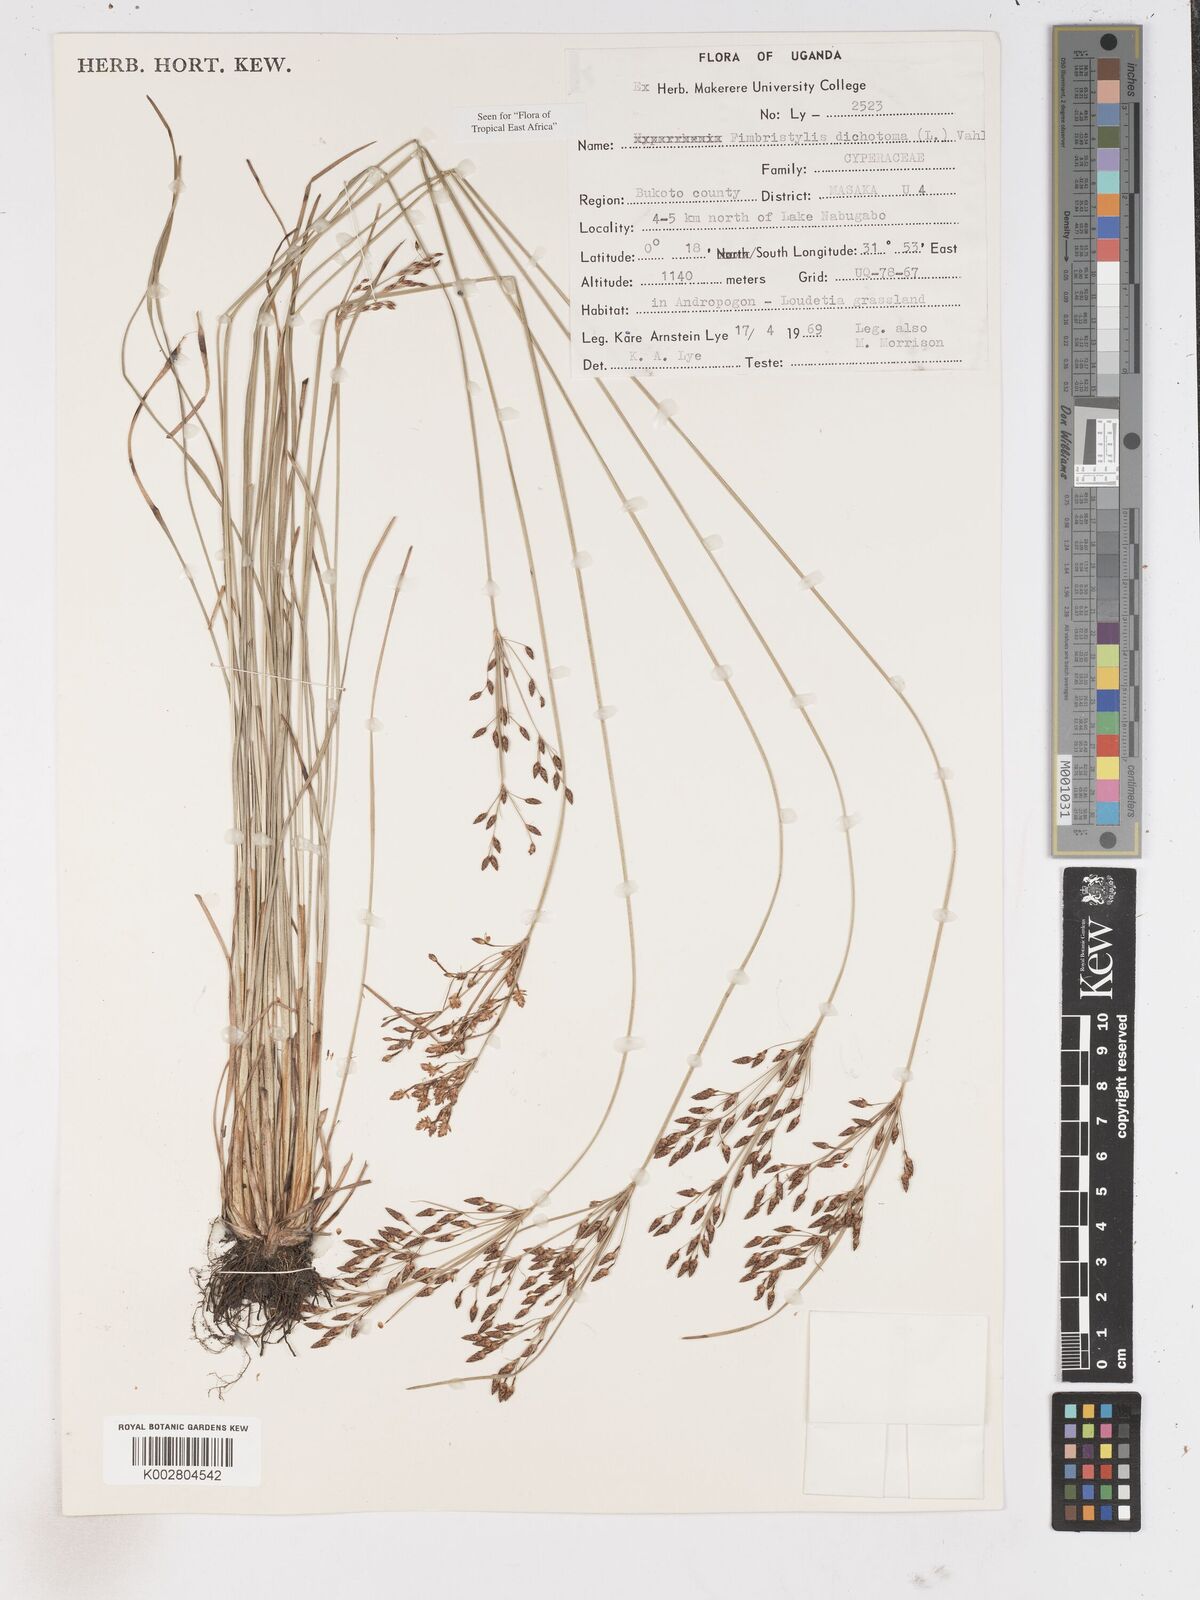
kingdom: Plantae
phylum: Tracheophyta
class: Liliopsida
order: Poales
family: Cyperaceae
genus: Fimbristylis
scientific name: Fimbristylis dichotoma
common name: Forked fimbry
